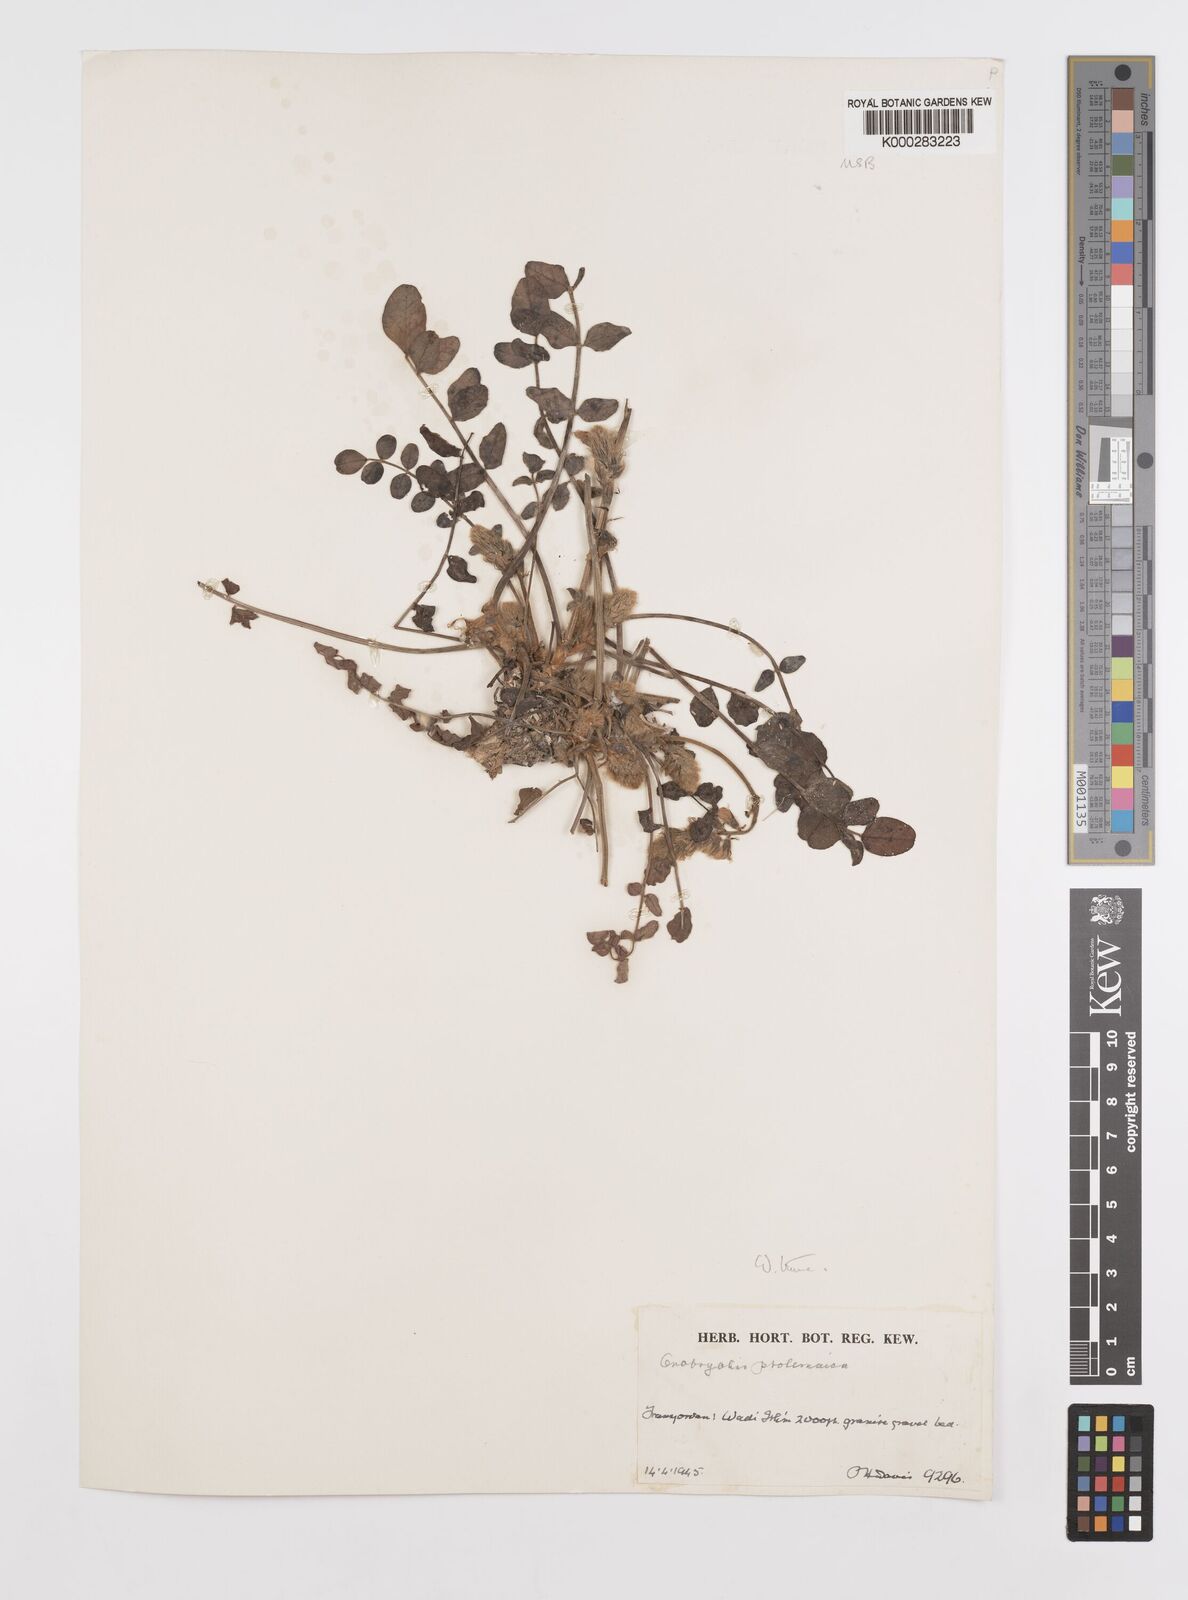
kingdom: Plantae
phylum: Tracheophyta
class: Magnoliopsida
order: Fabales
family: Fabaceae
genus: Onobrychis
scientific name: Onobrychis ptolemaica
